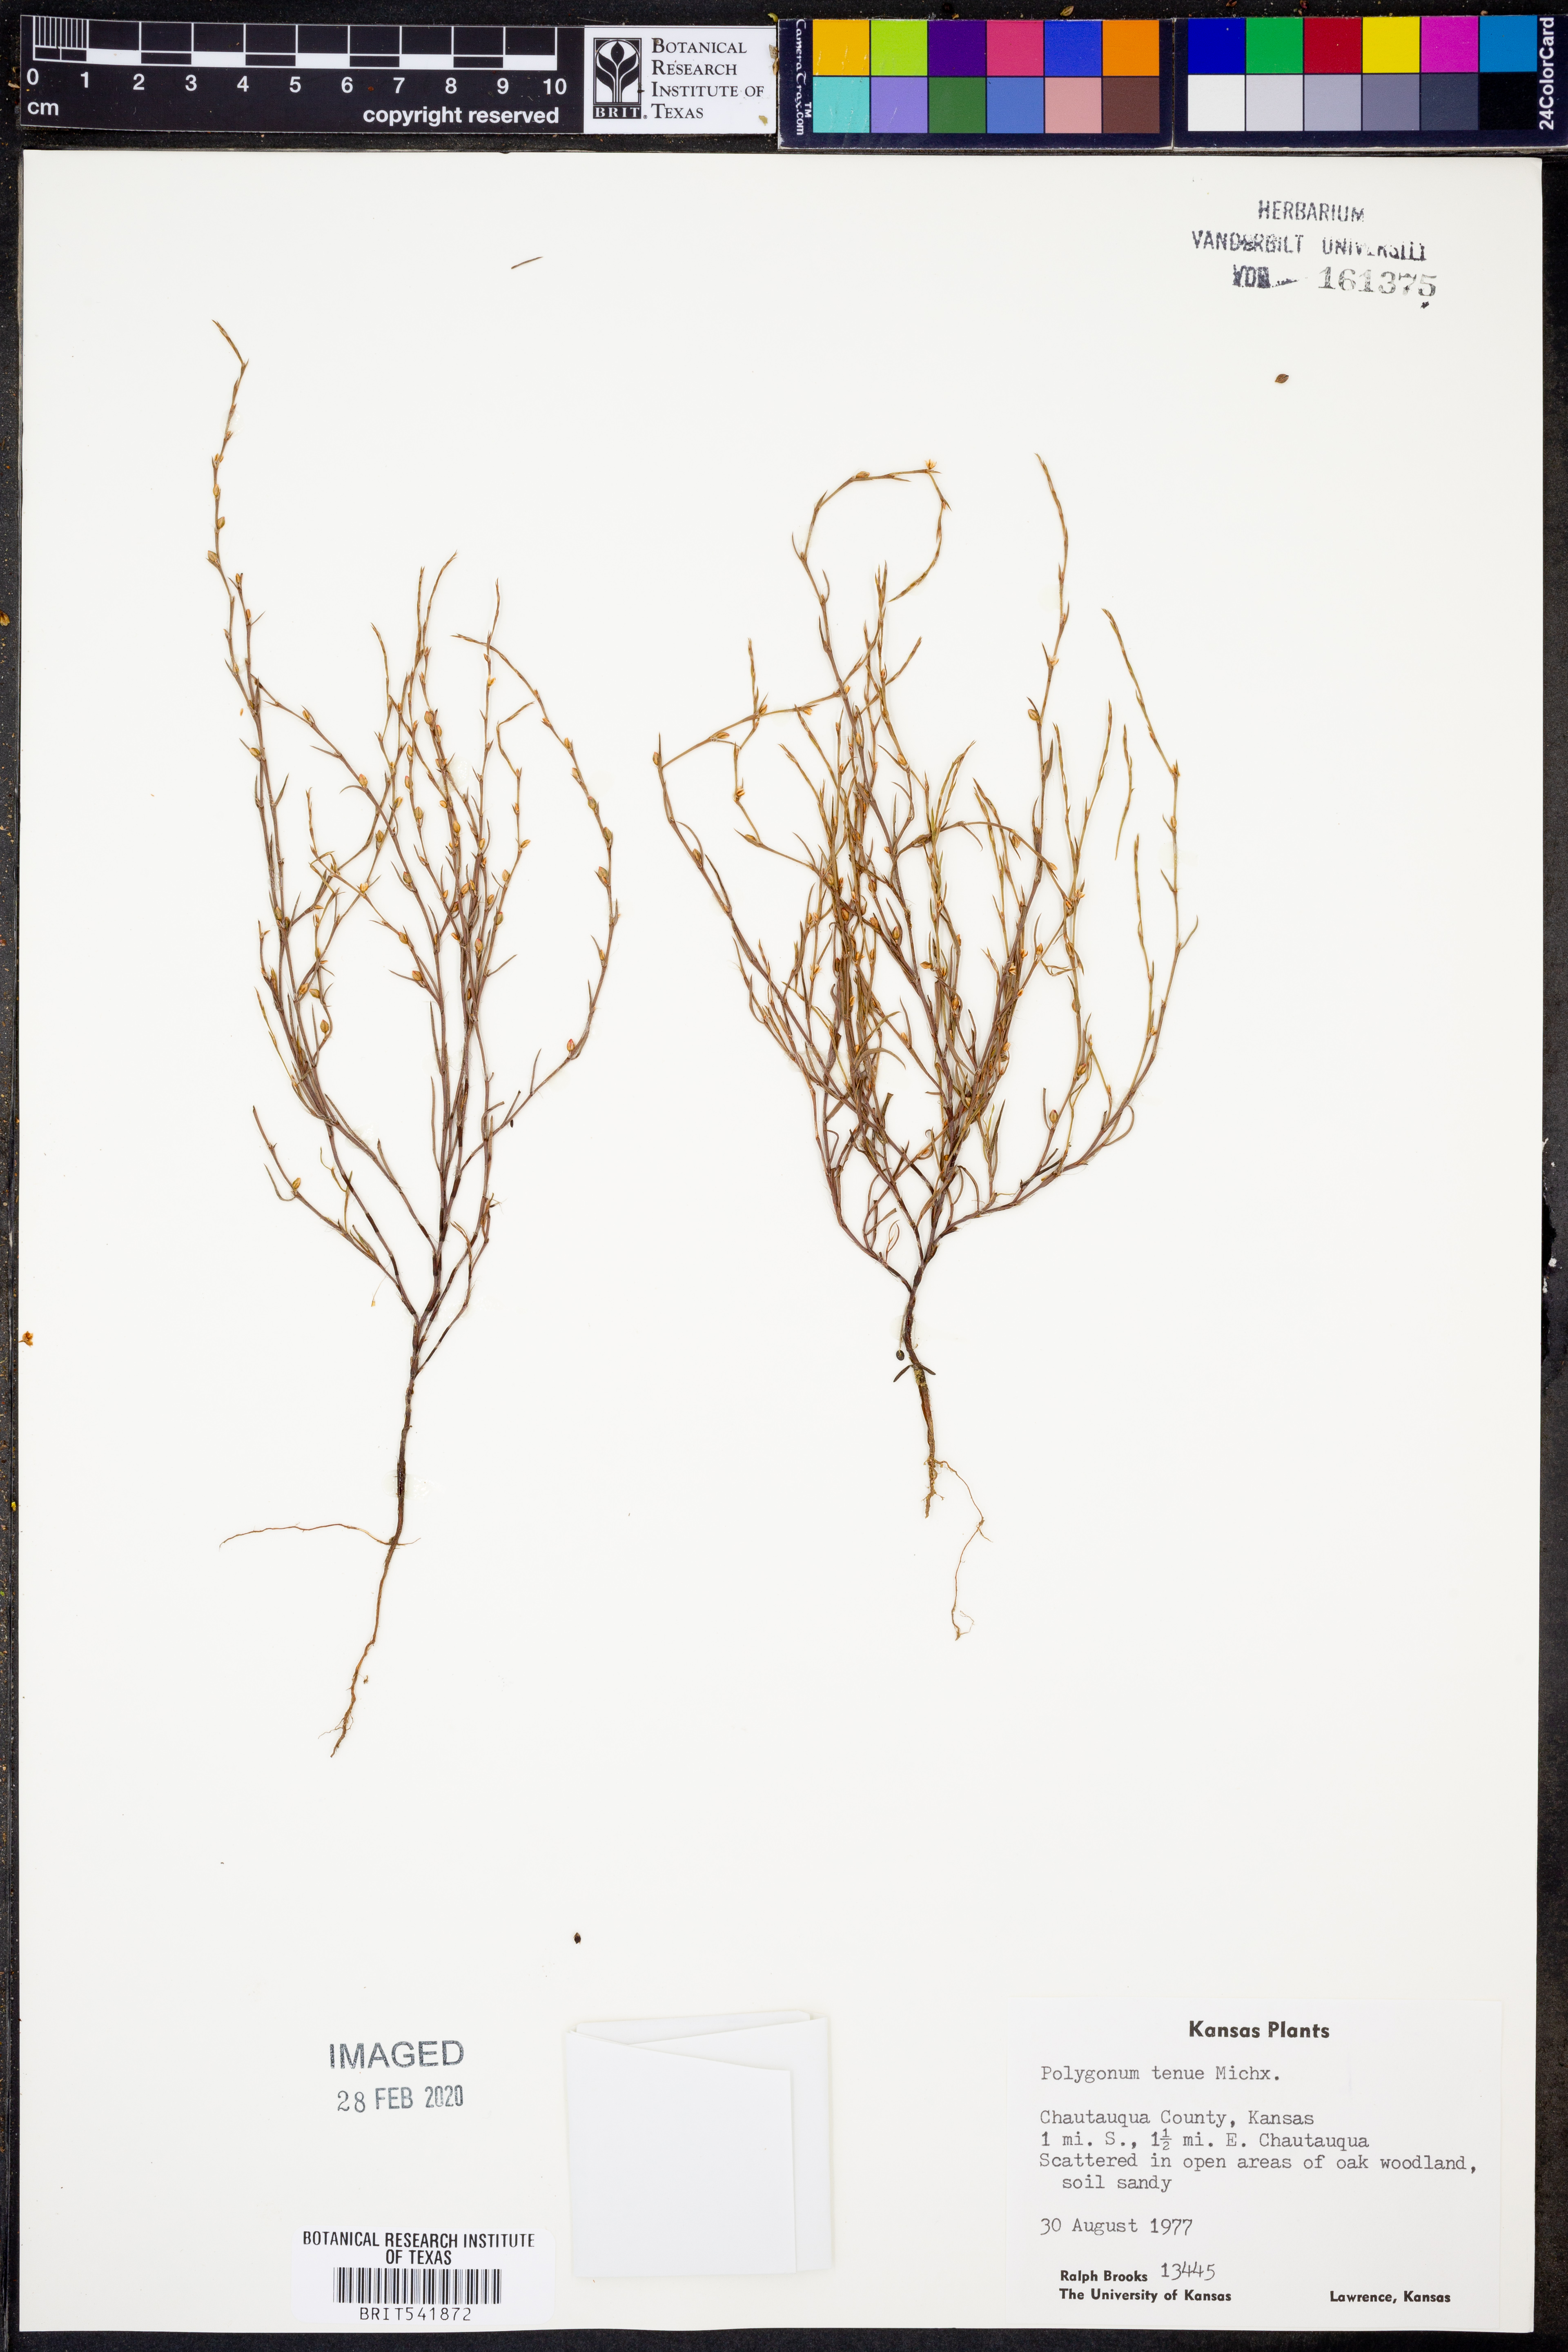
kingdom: Plantae
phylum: Tracheophyta
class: Magnoliopsida
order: Caryophyllales
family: Polygonaceae
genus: Polygonum
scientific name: Polygonum tenue
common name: Pleat-leaved knotweed
